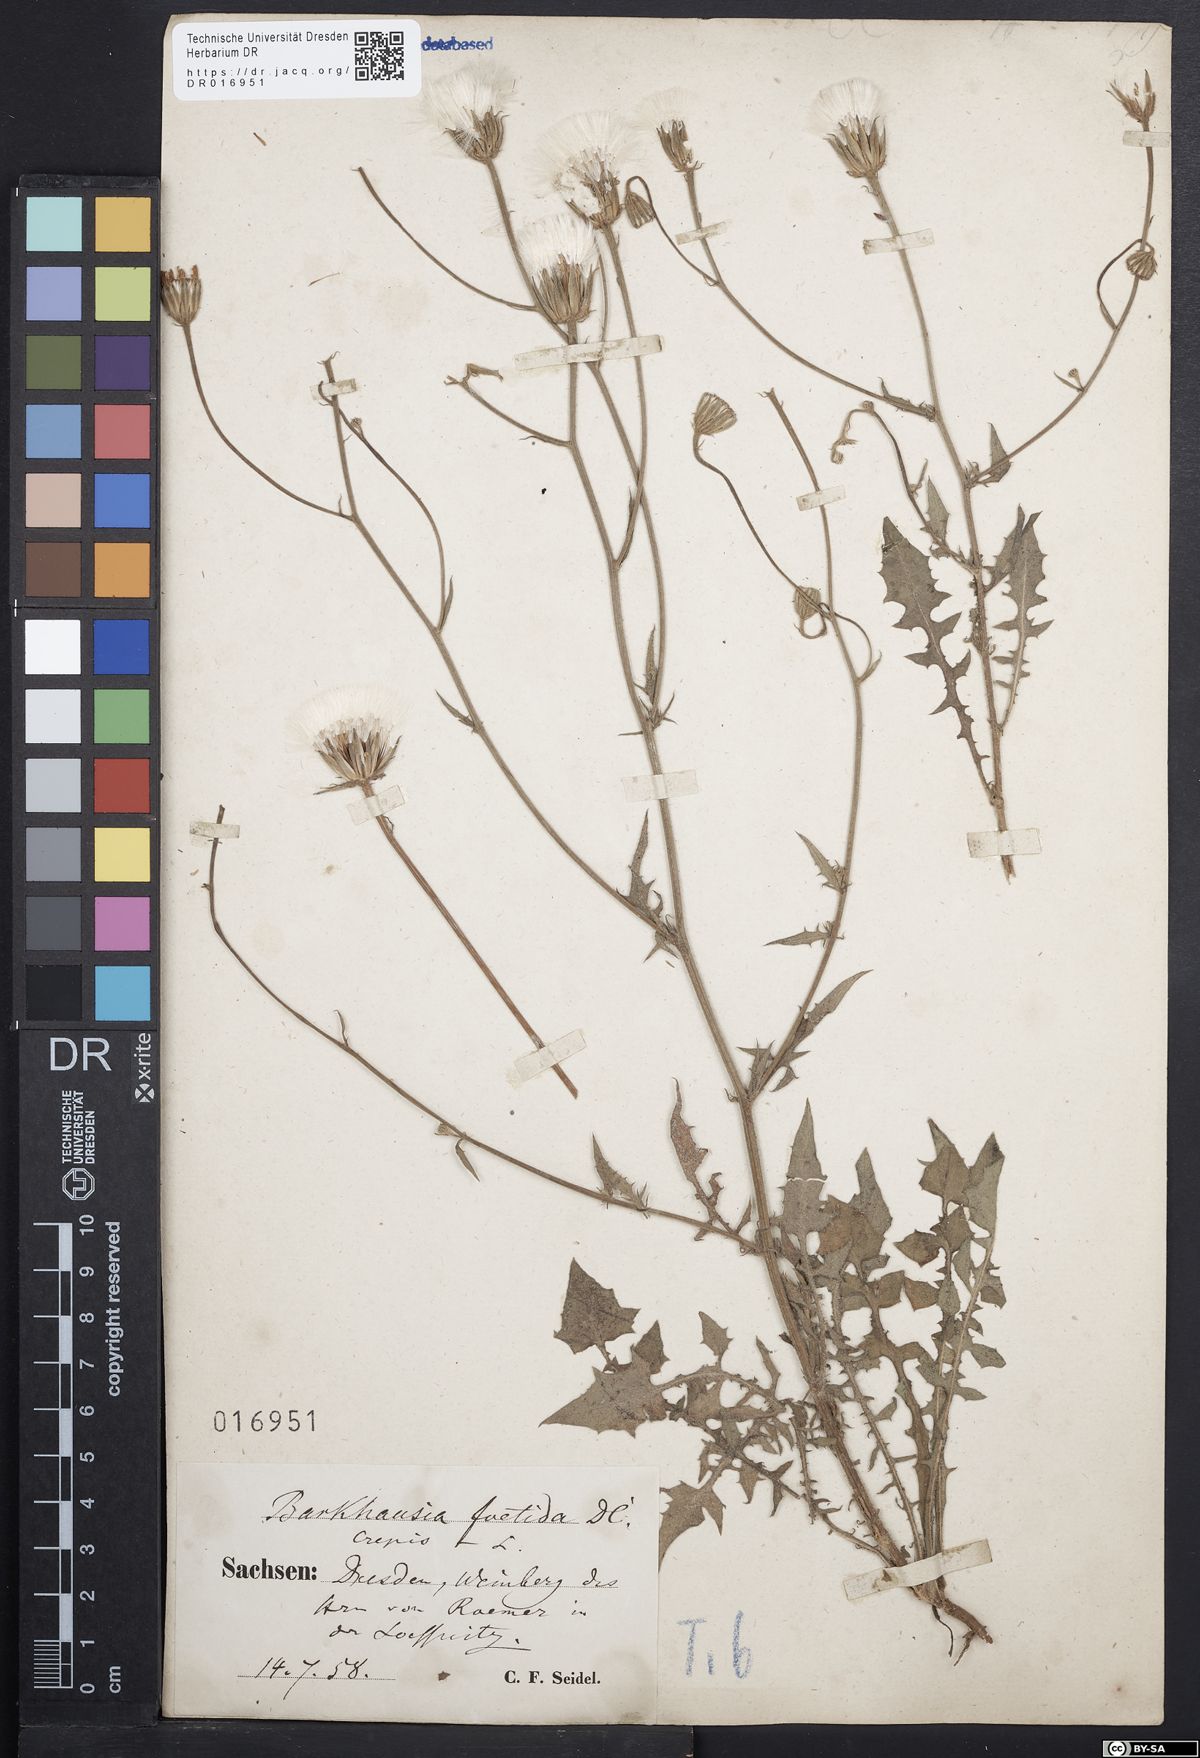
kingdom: Plantae
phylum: Tracheophyta
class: Magnoliopsida
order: Asterales
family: Asteraceae
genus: Crepis
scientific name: Crepis foetida
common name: Stinking hawk's-beard
